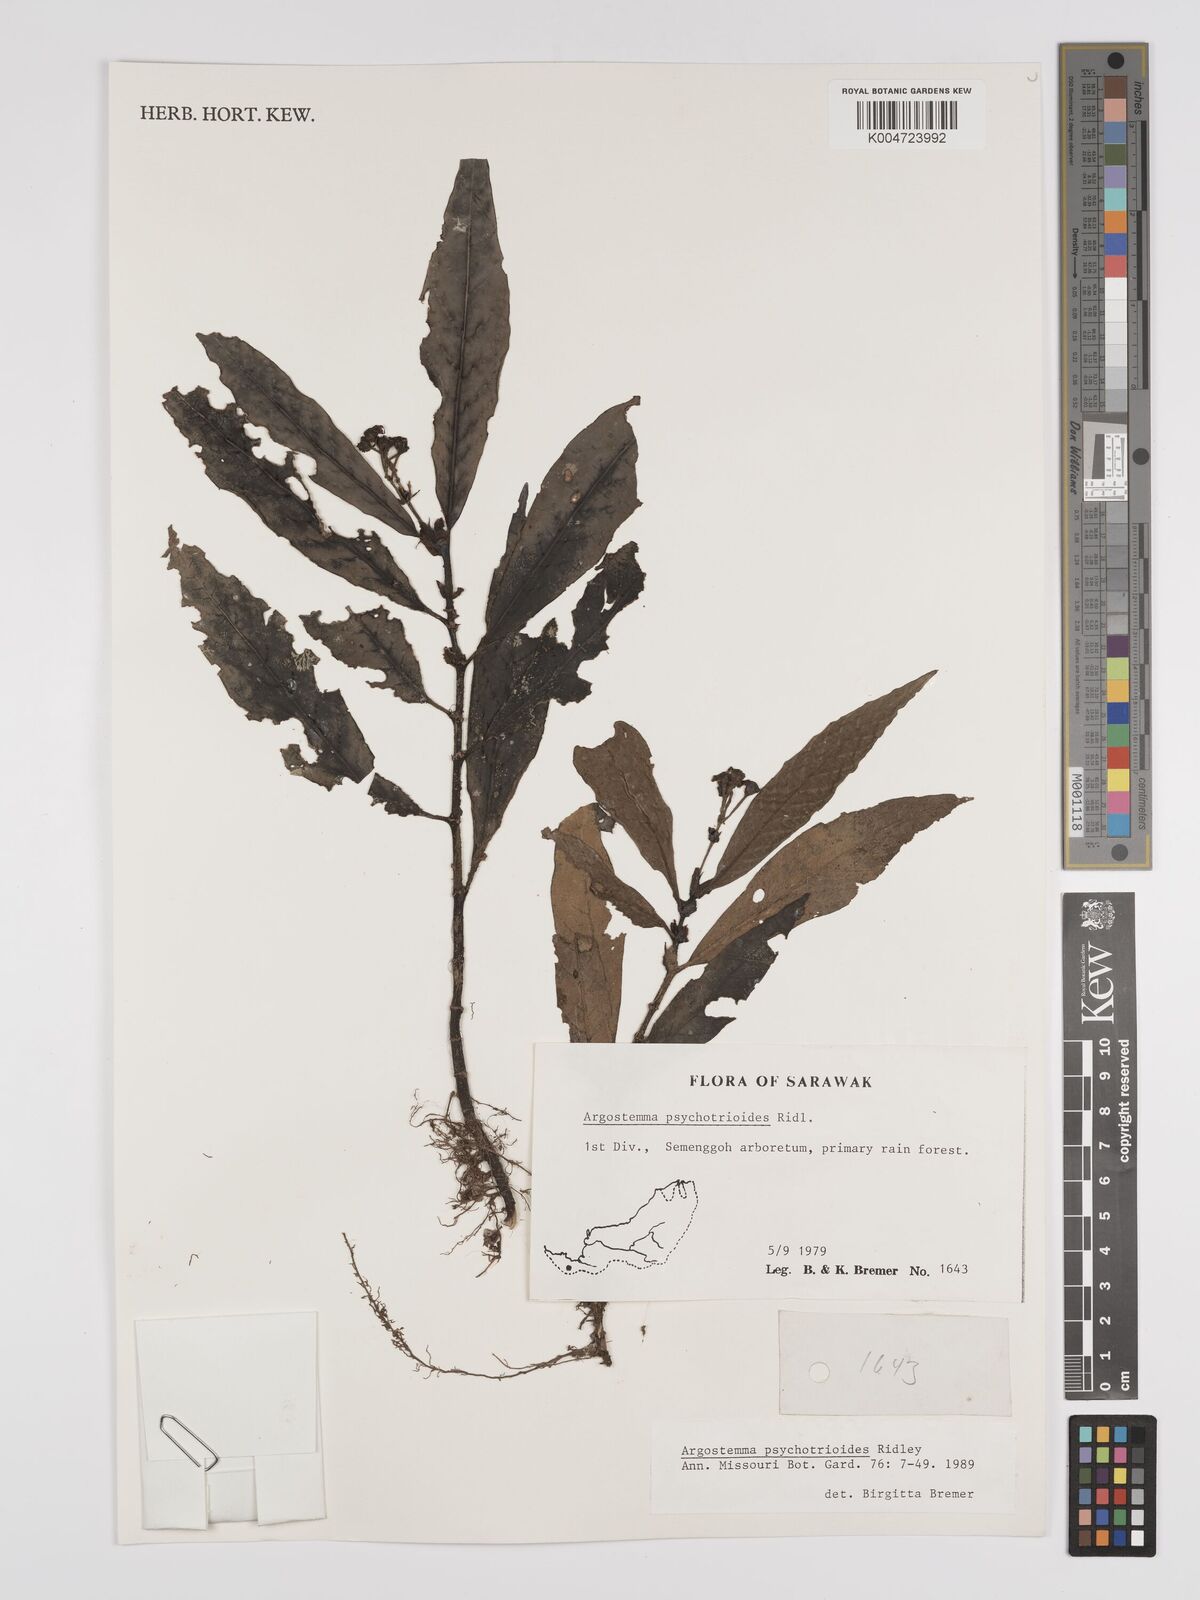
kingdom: Plantae
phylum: Tracheophyta
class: Magnoliopsida
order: Gentianales
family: Rubiaceae
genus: Argostemma
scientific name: Argostemma psychotrioides
